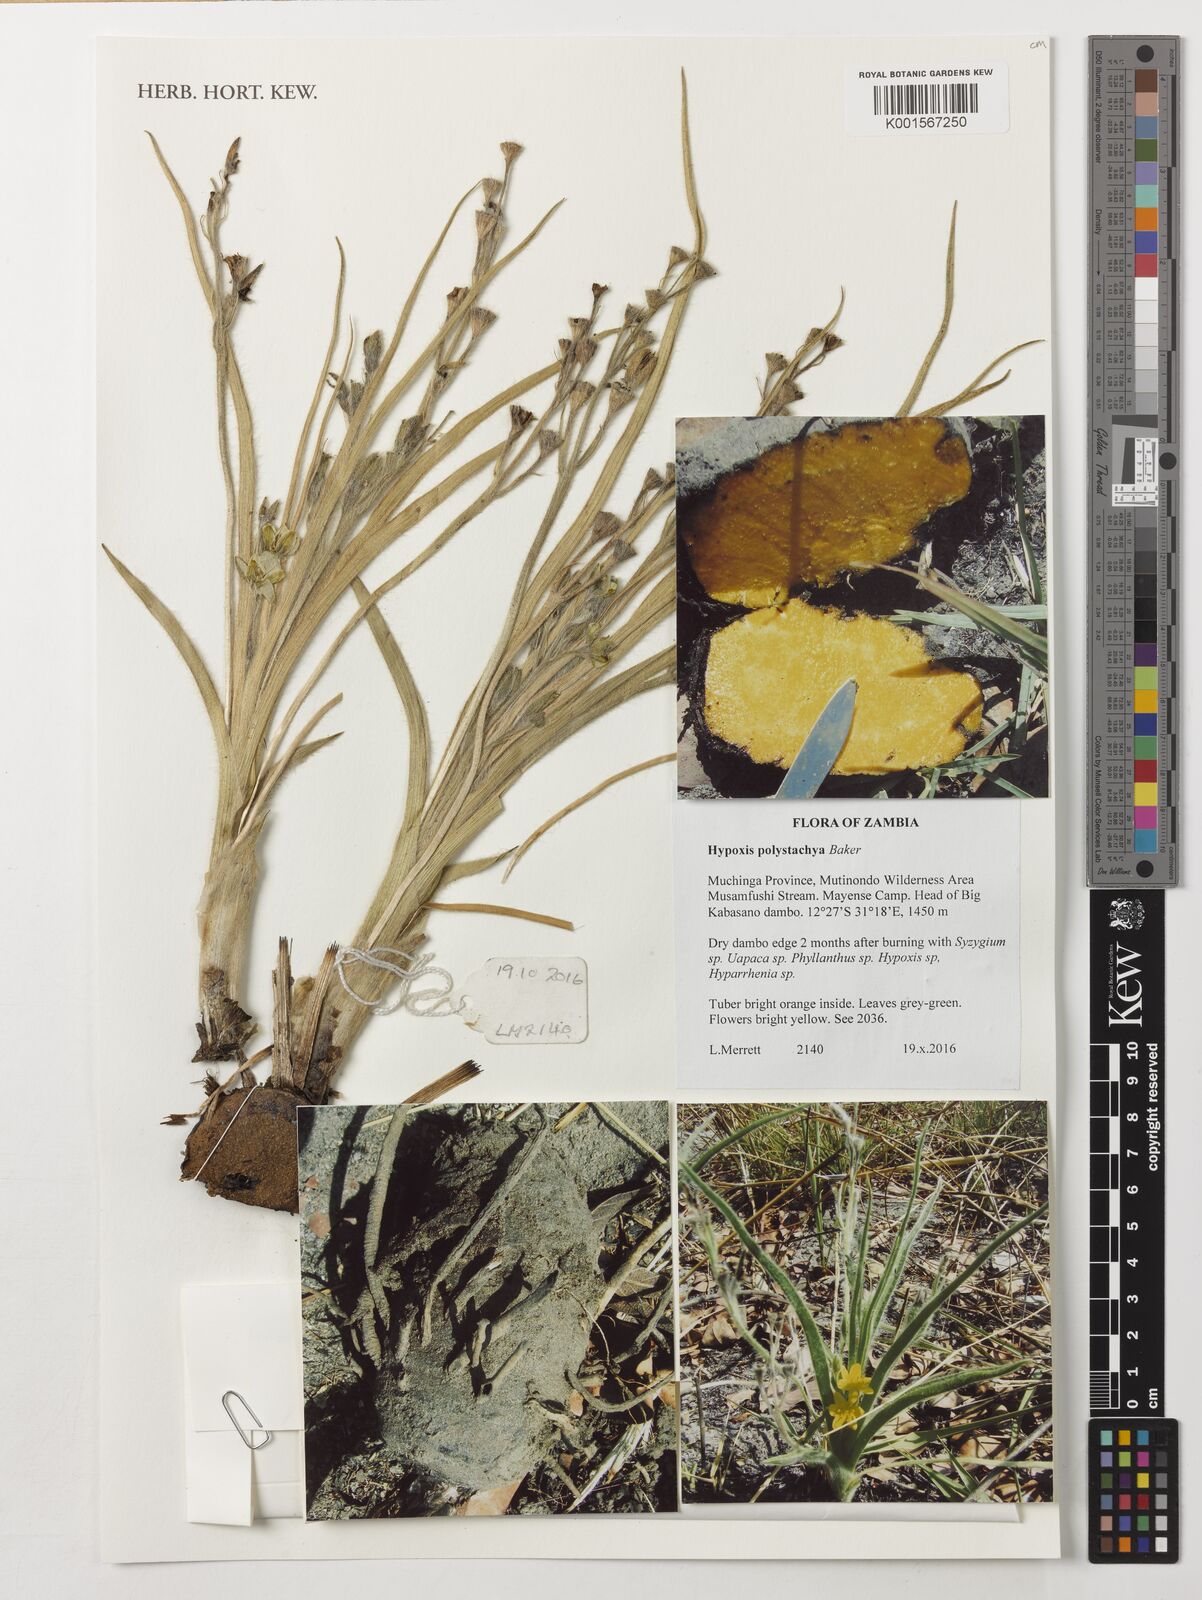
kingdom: Plantae
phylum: Tracheophyta
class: Liliopsida
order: Asparagales
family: Hypoxidaceae
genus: Hypoxis
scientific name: Hypoxis polystachya
